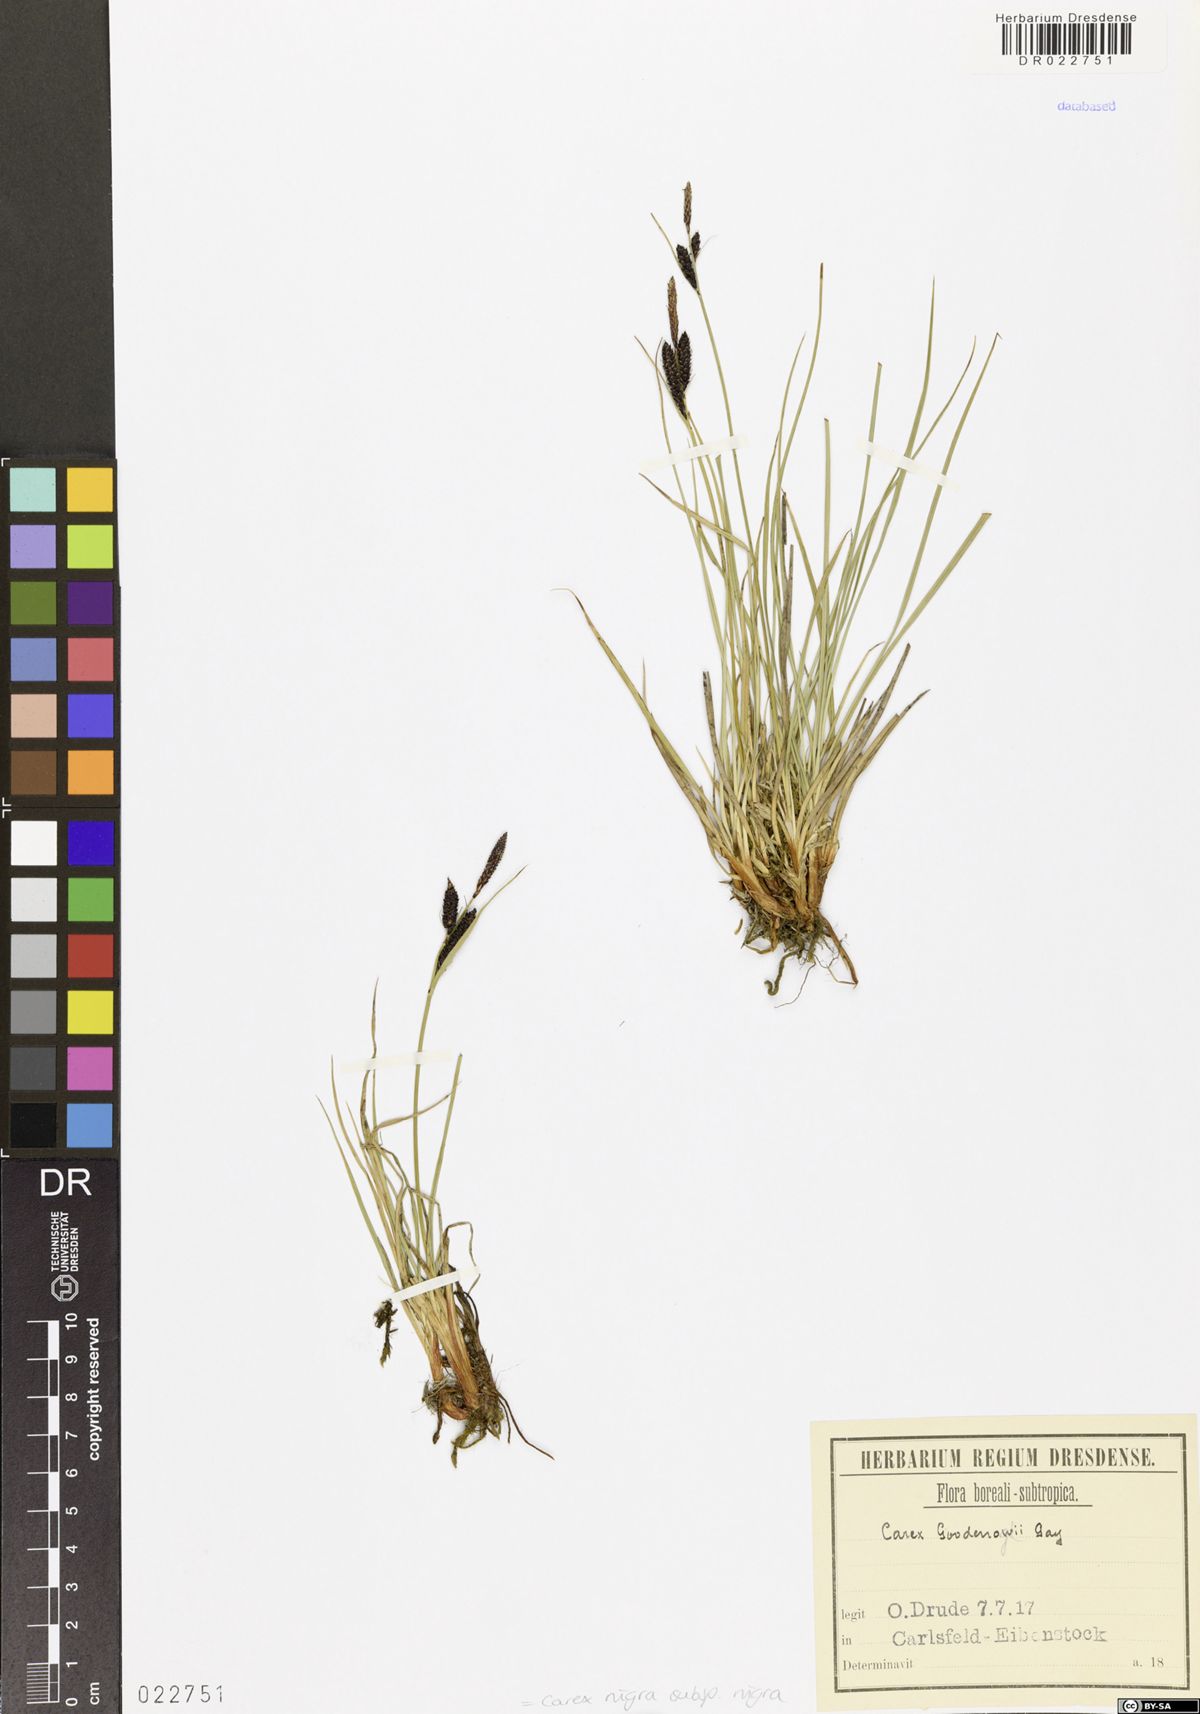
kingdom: Plantae
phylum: Tracheophyta
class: Liliopsida
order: Poales
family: Cyperaceae
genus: Carex
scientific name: Carex nigra
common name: Common sedge
